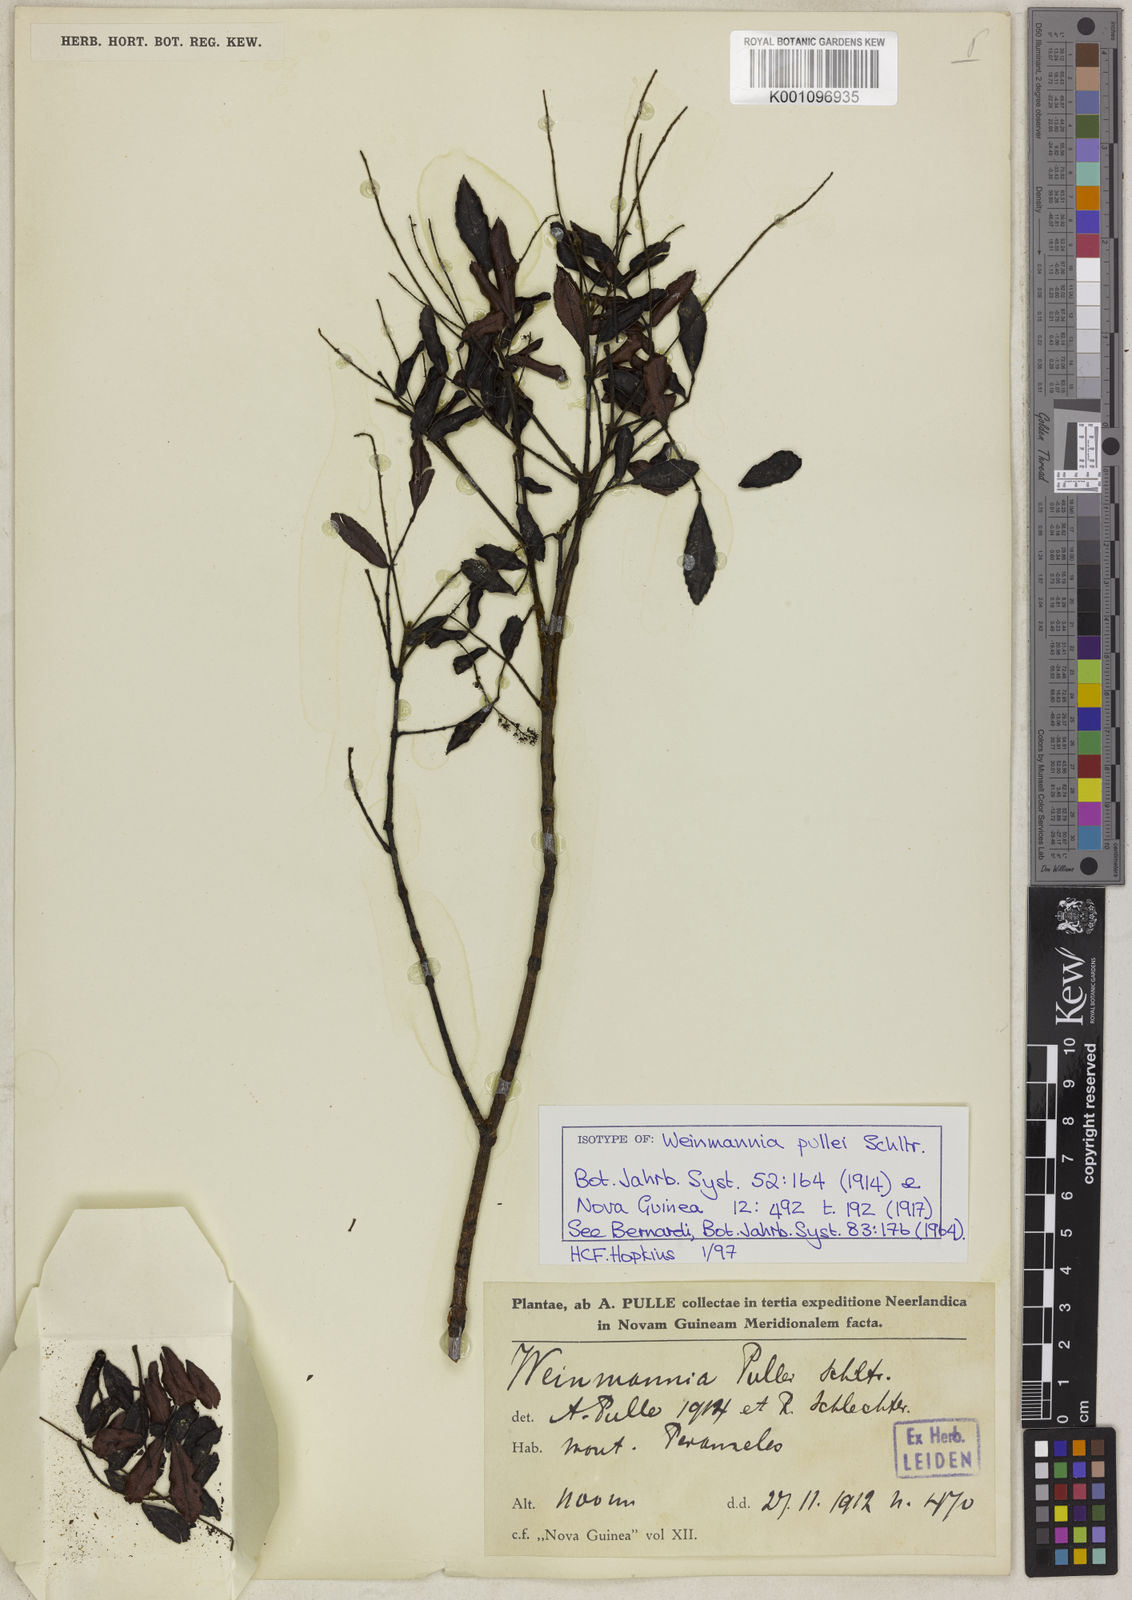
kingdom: Plantae
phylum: Tracheophyta
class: Magnoliopsida
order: Oxalidales
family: Cunoniaceae
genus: Pterophylla
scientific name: Pterophylla pullei
